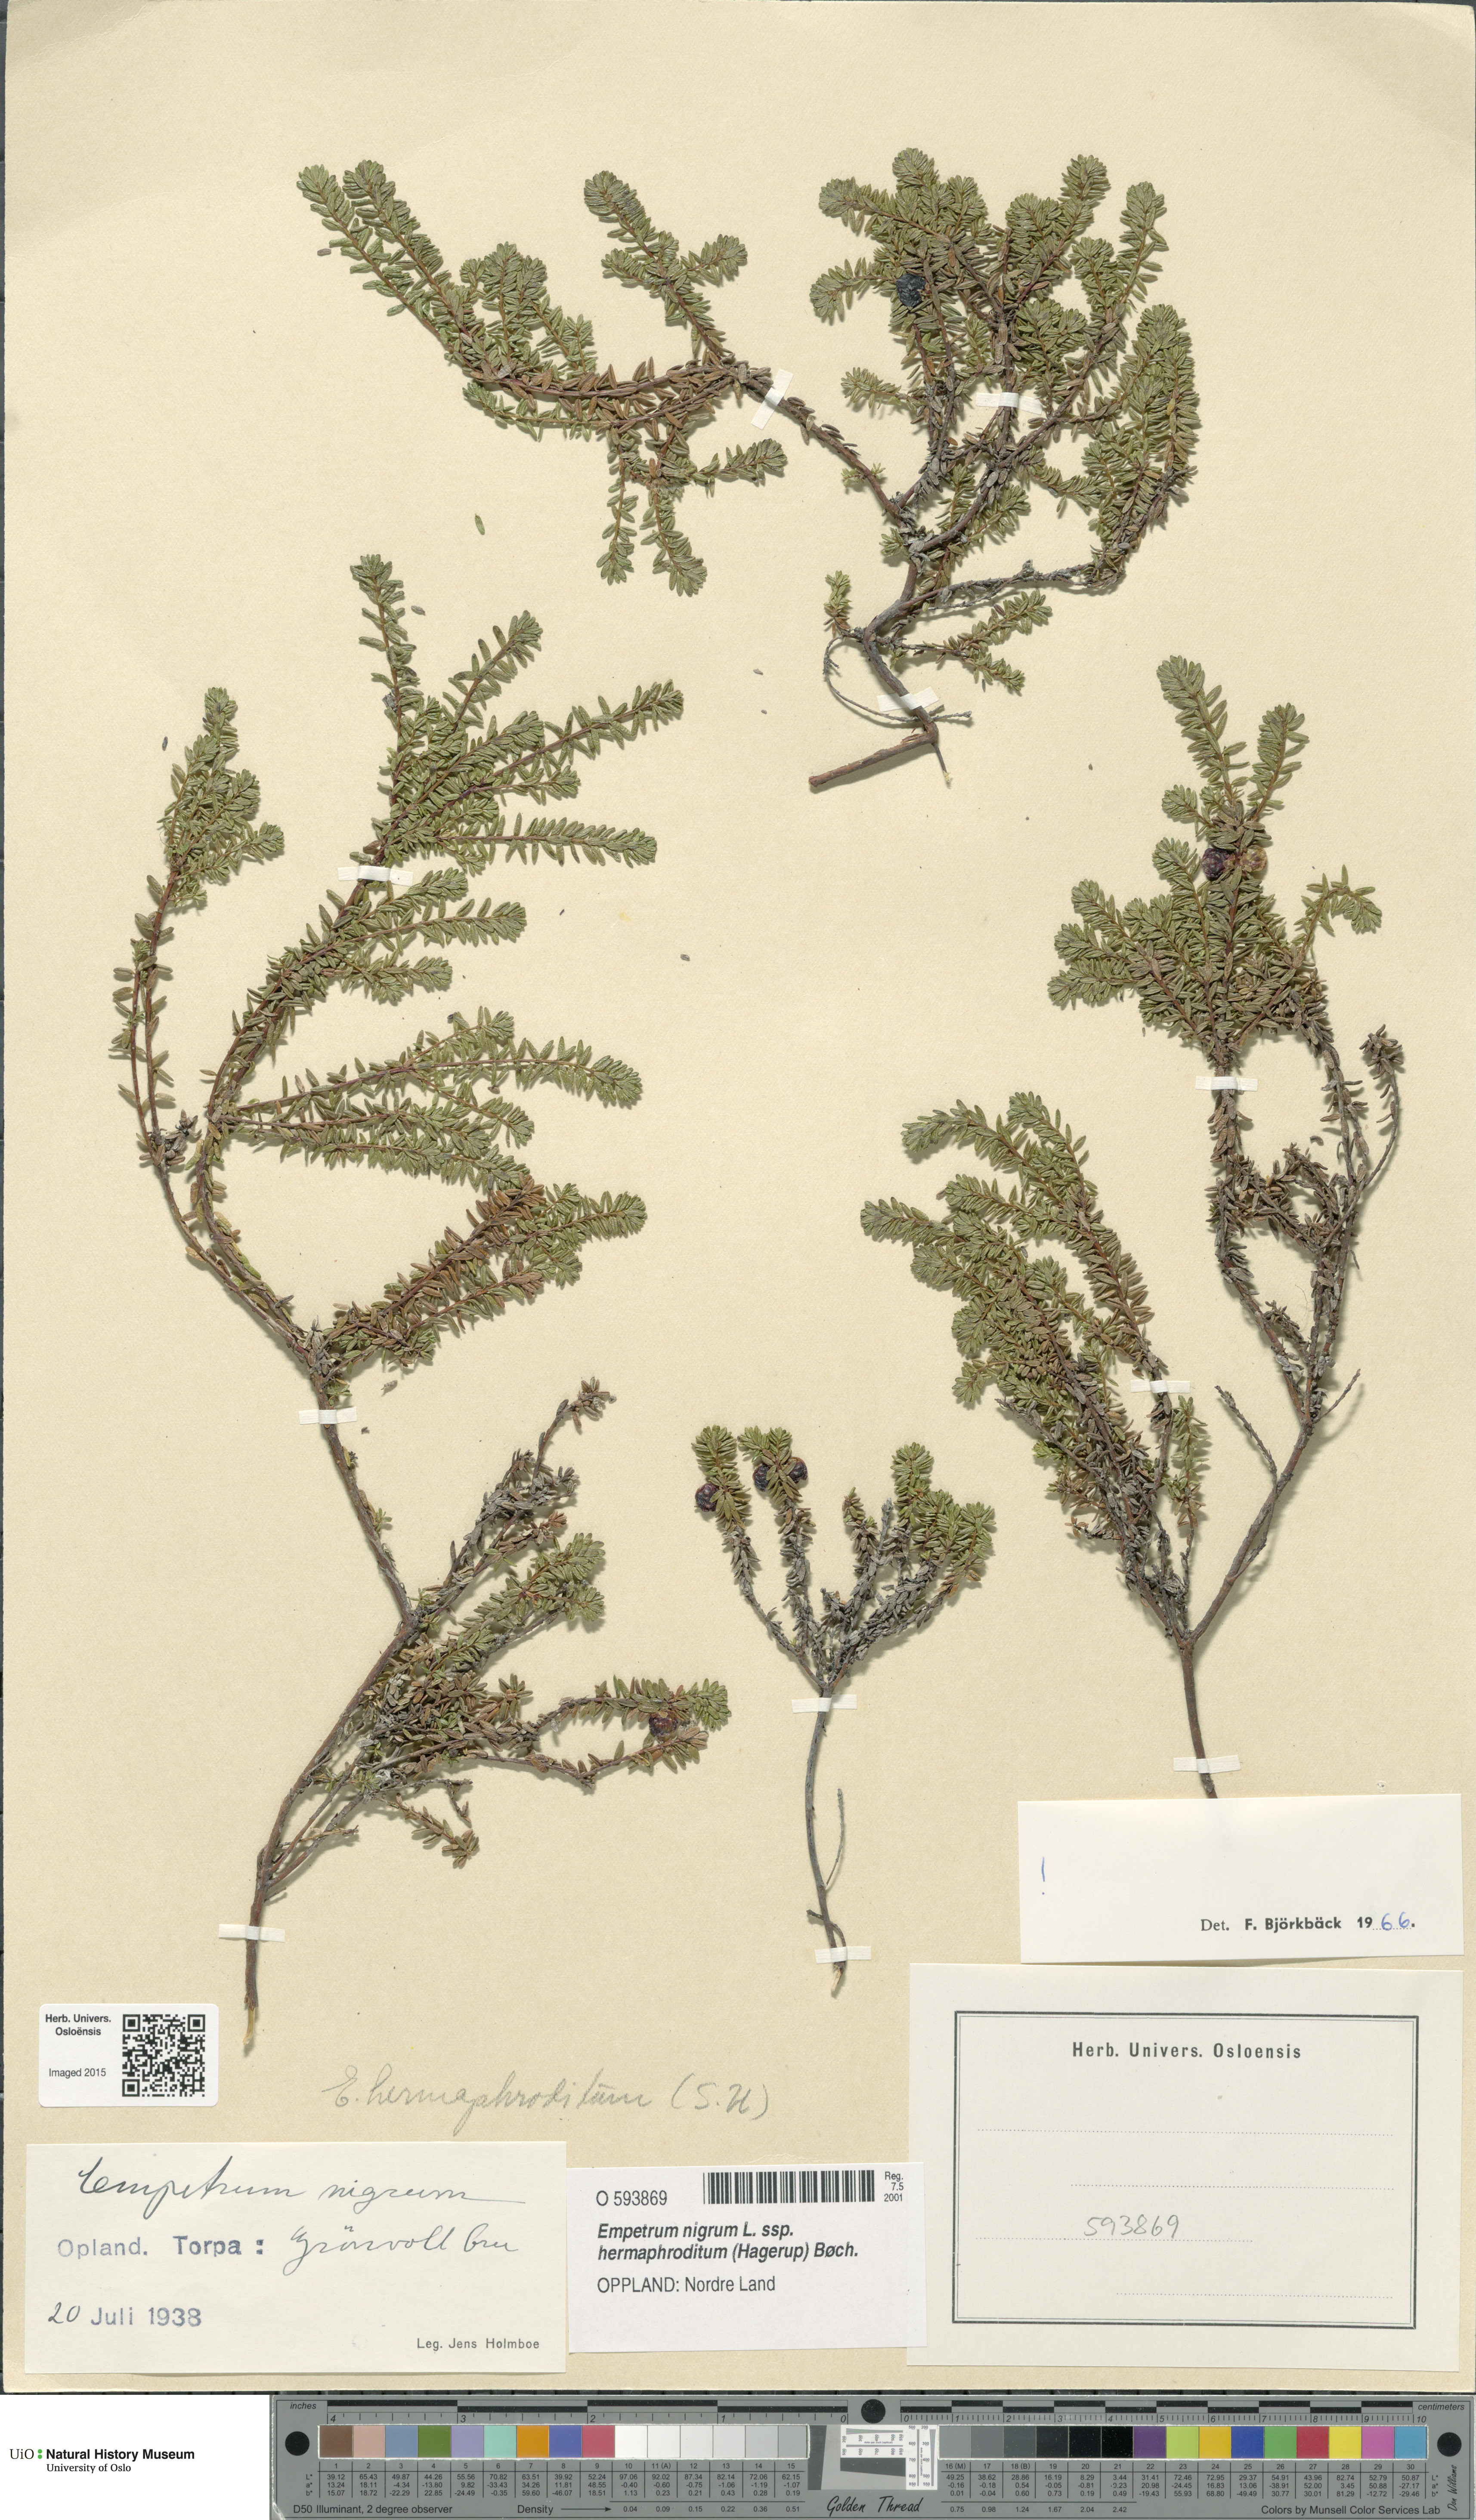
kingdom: Plantae
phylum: Tracheophyta
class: Magnoliopsida
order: Ericales
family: Ericaceae
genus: Empetrum
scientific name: Empetrum hermaphroditum
